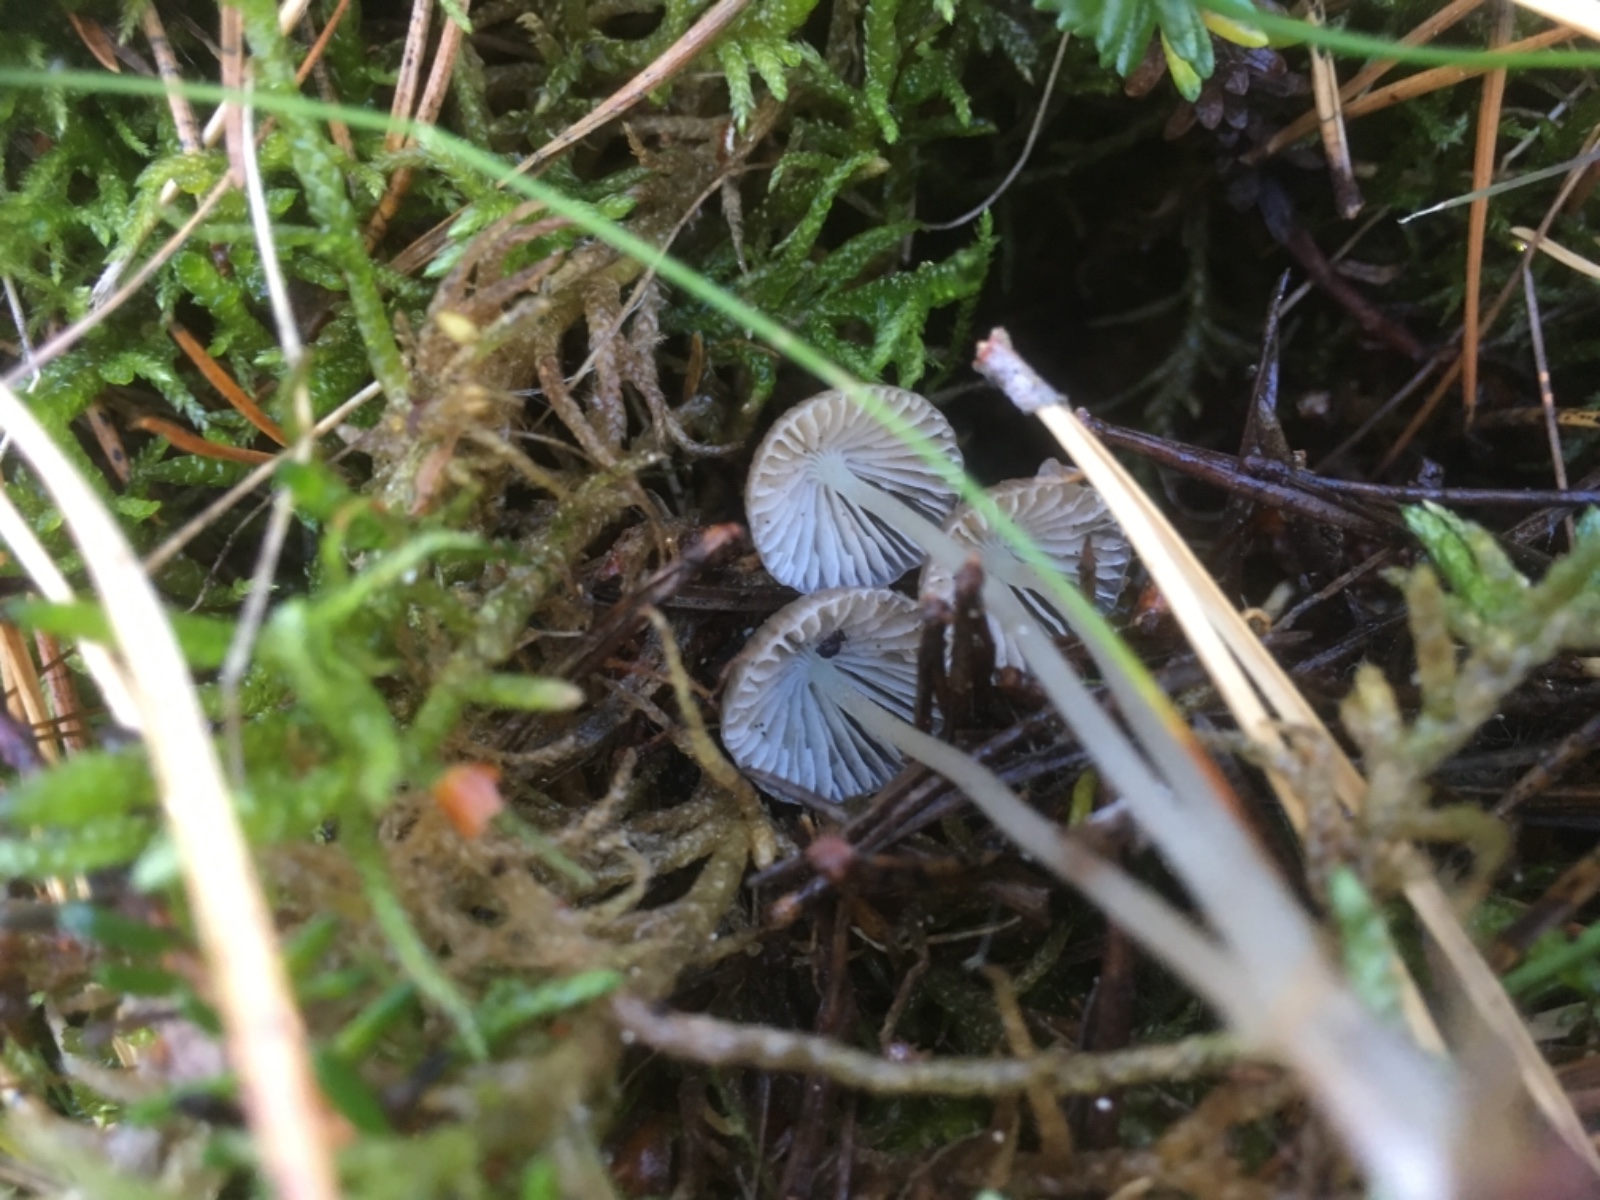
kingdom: Fungi
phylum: Basidiomycota
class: Agaricomycetes
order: Agaricales
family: Mycenaceae
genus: Mycena
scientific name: Mycena galopus
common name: hvidmælket huesvamp
